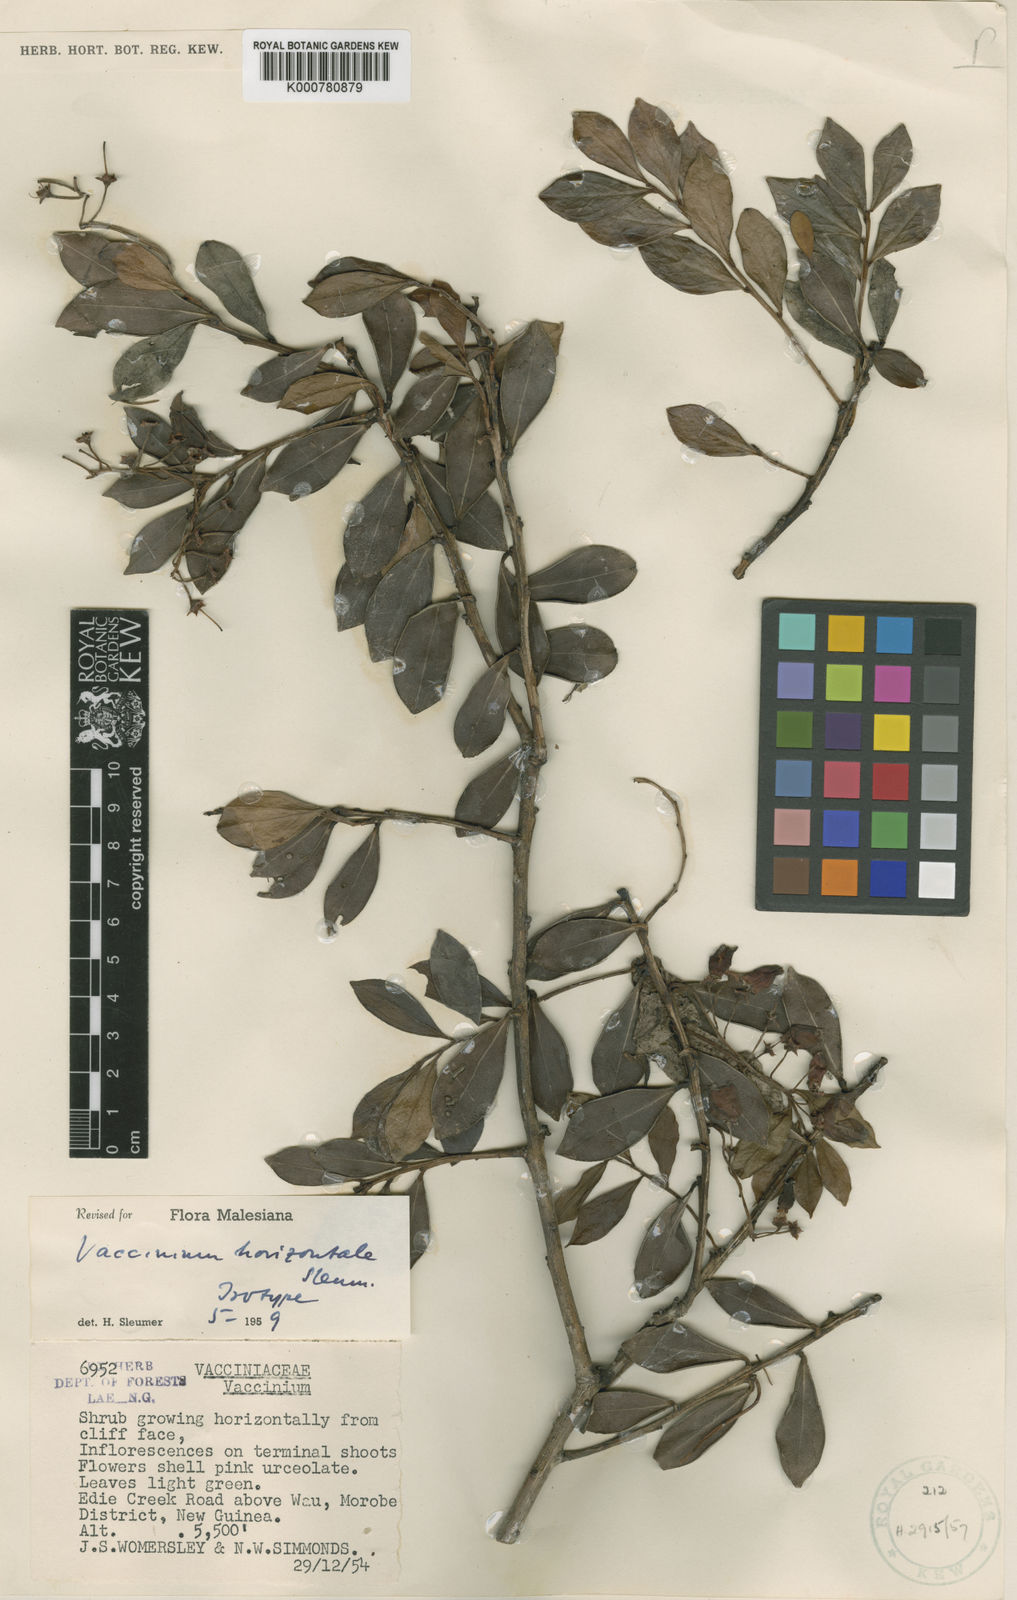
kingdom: Plantae
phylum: Tracheophyta
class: Magnoliopsida
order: Ericales
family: Ericaceae
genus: Vaccinium
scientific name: Vaccinium horizontale
